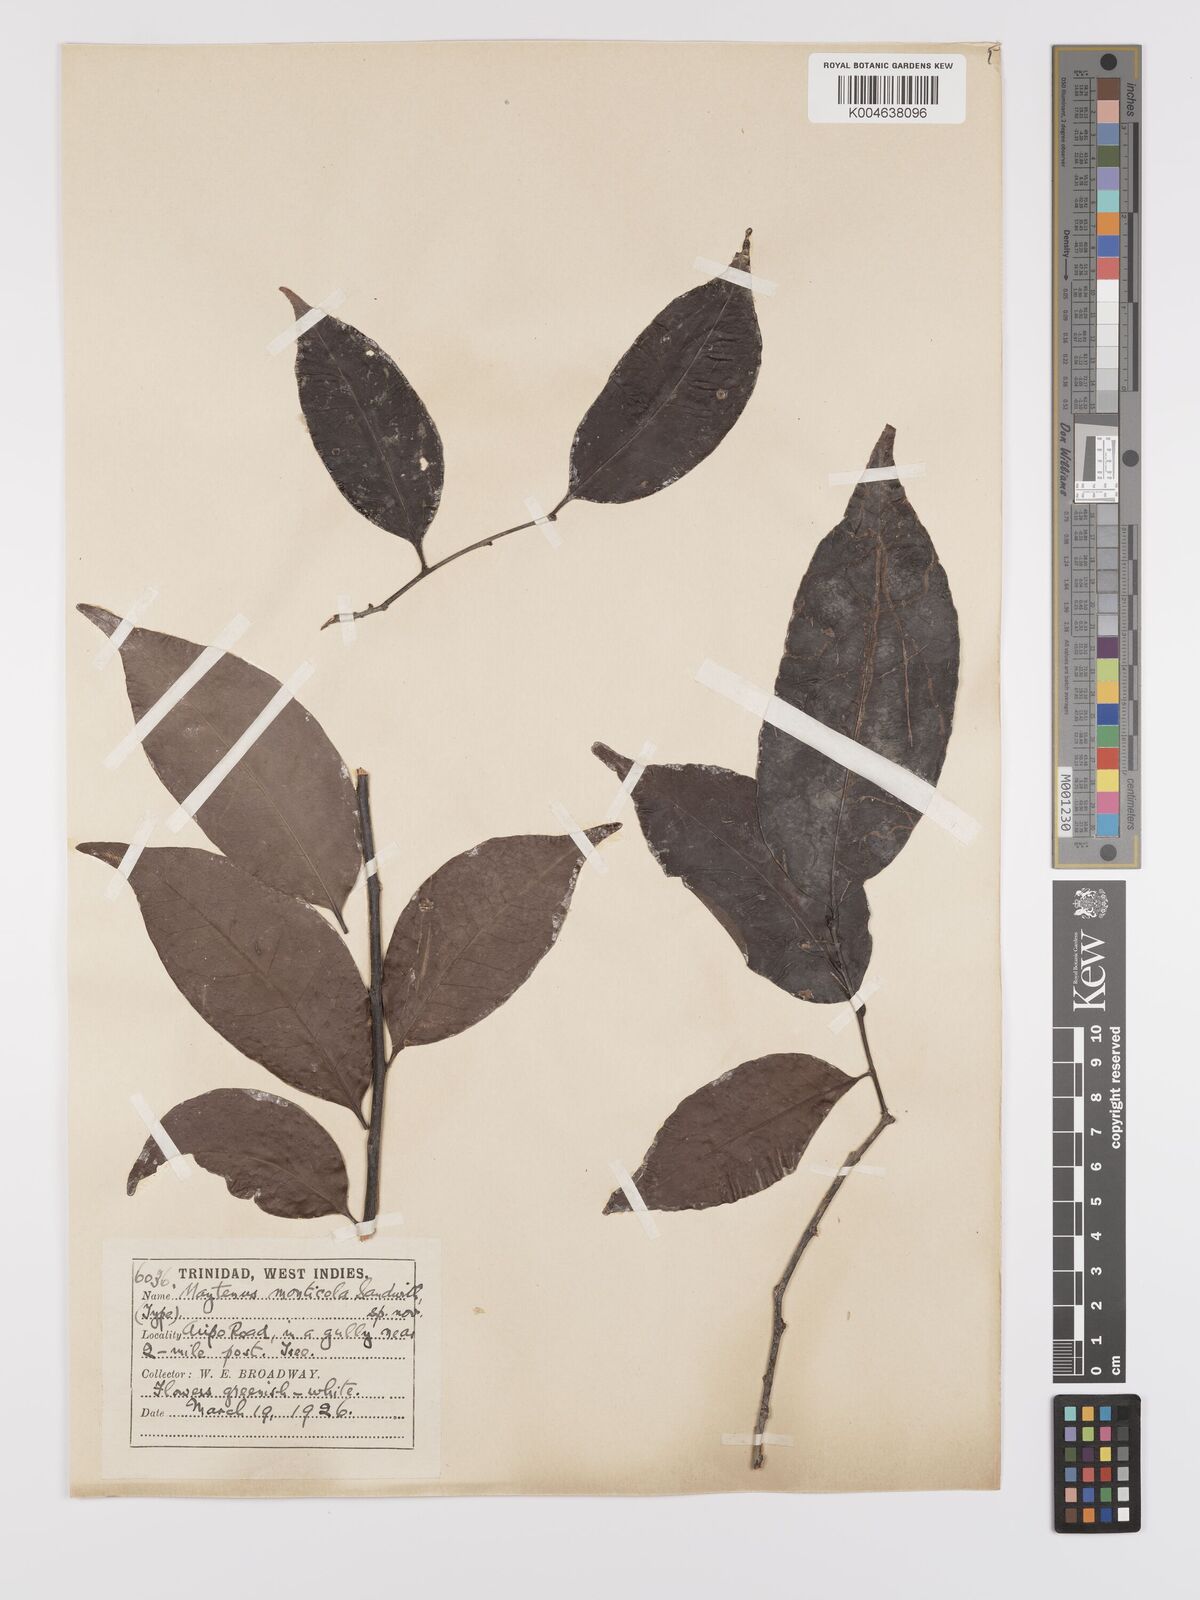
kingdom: Plantae
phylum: Tracheophyta
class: Magnoliopsida
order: Celastrales
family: Celastraceae
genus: Monteverdia
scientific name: Monteverdia monticola
